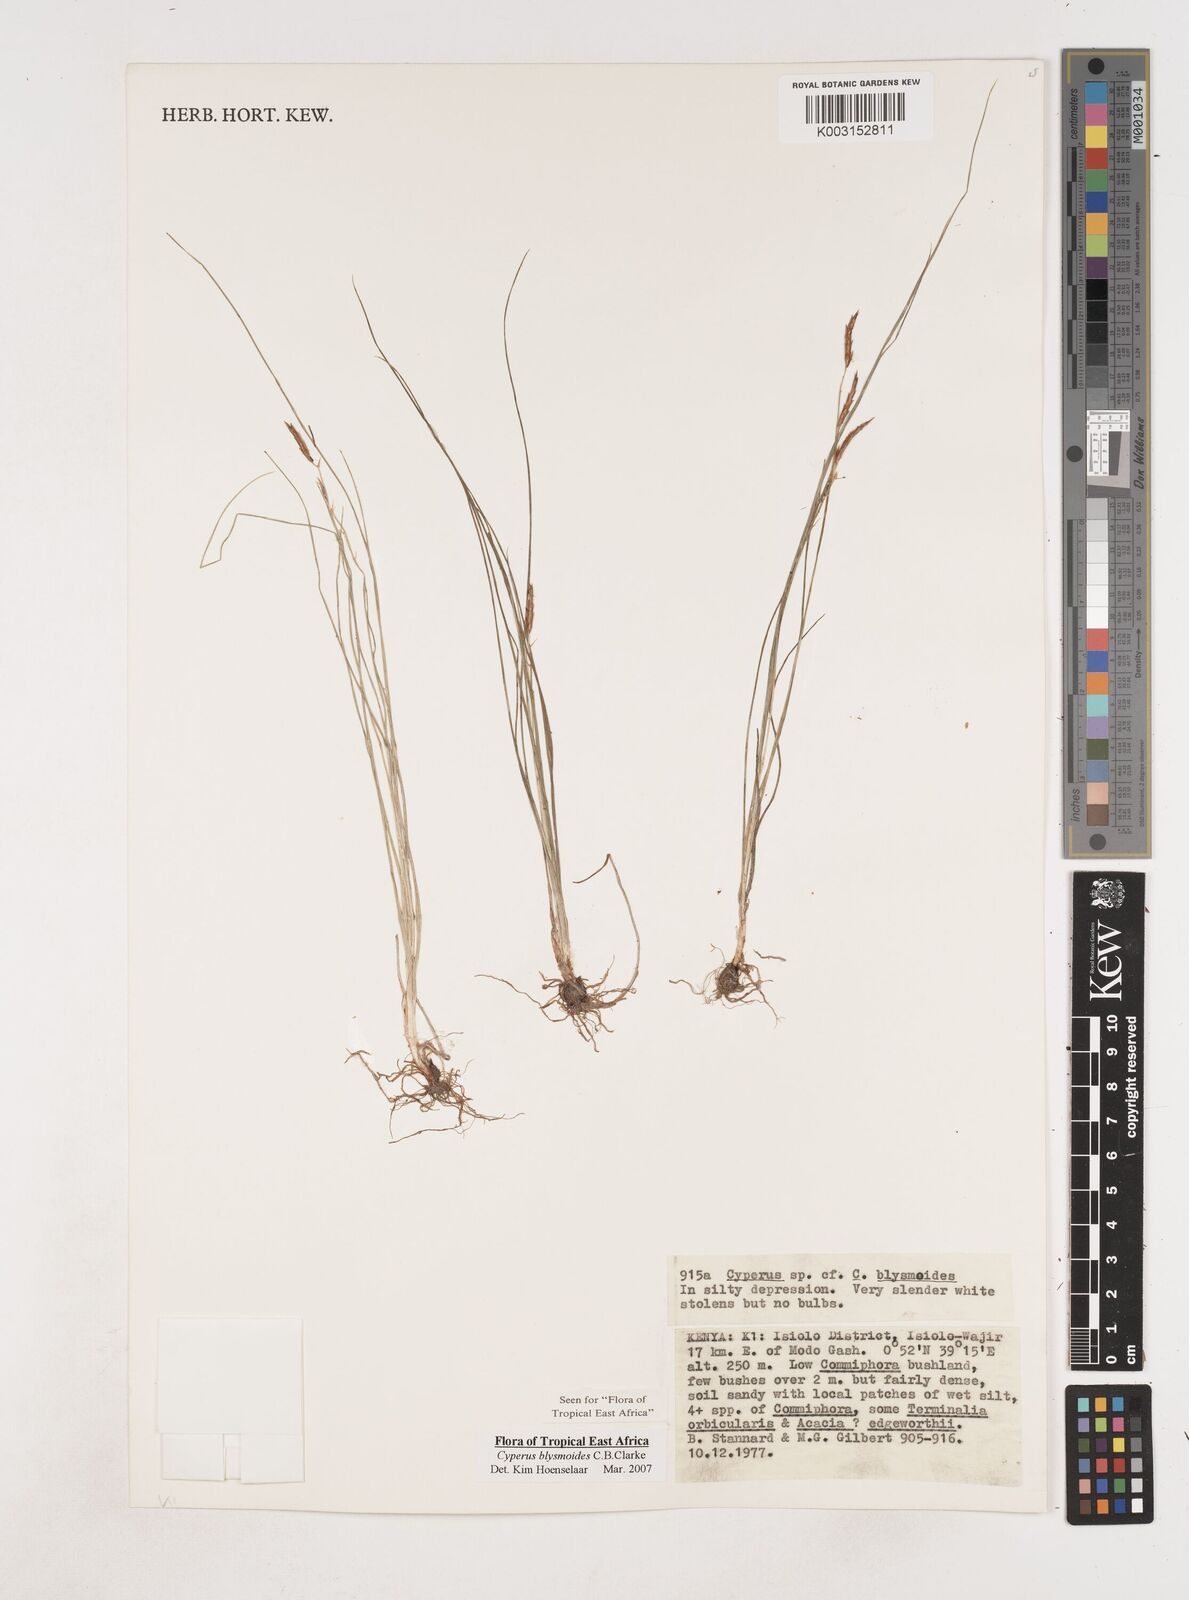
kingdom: Plantae
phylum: Tracheophyta
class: Liliopsida
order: Poales
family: Cyperaceae
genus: Cyperus
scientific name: Cyperus blysmoides
